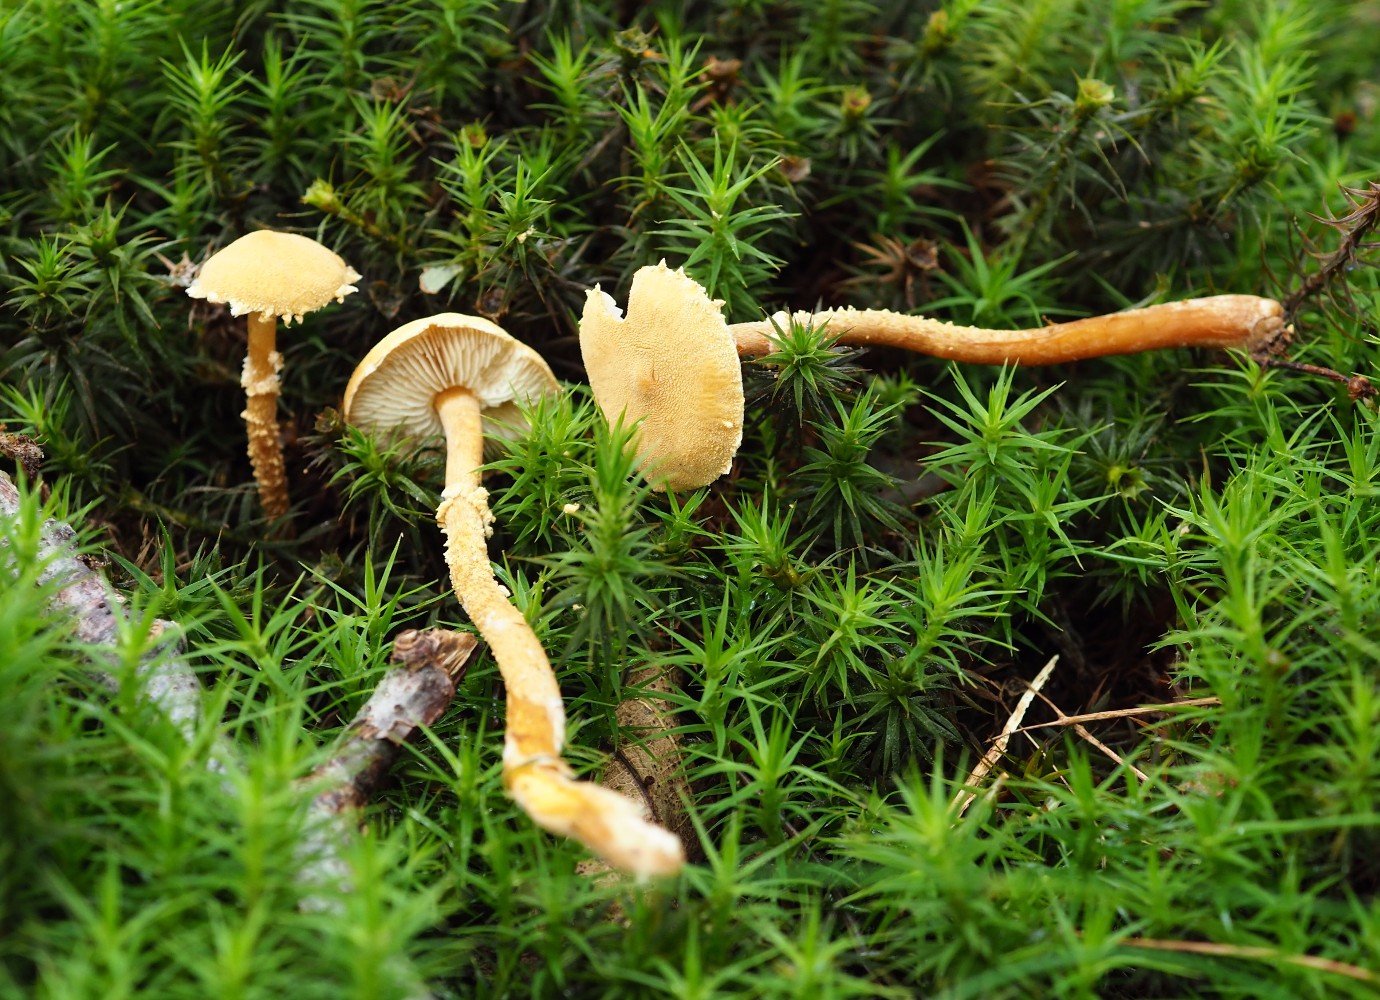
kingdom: Fungi
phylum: Basidiomycota
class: Agaricomycetes
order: Agaricales
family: Tricholomataceae
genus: Cystoderma
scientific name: Cystoderma amianthinum
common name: okkergul grynhat
